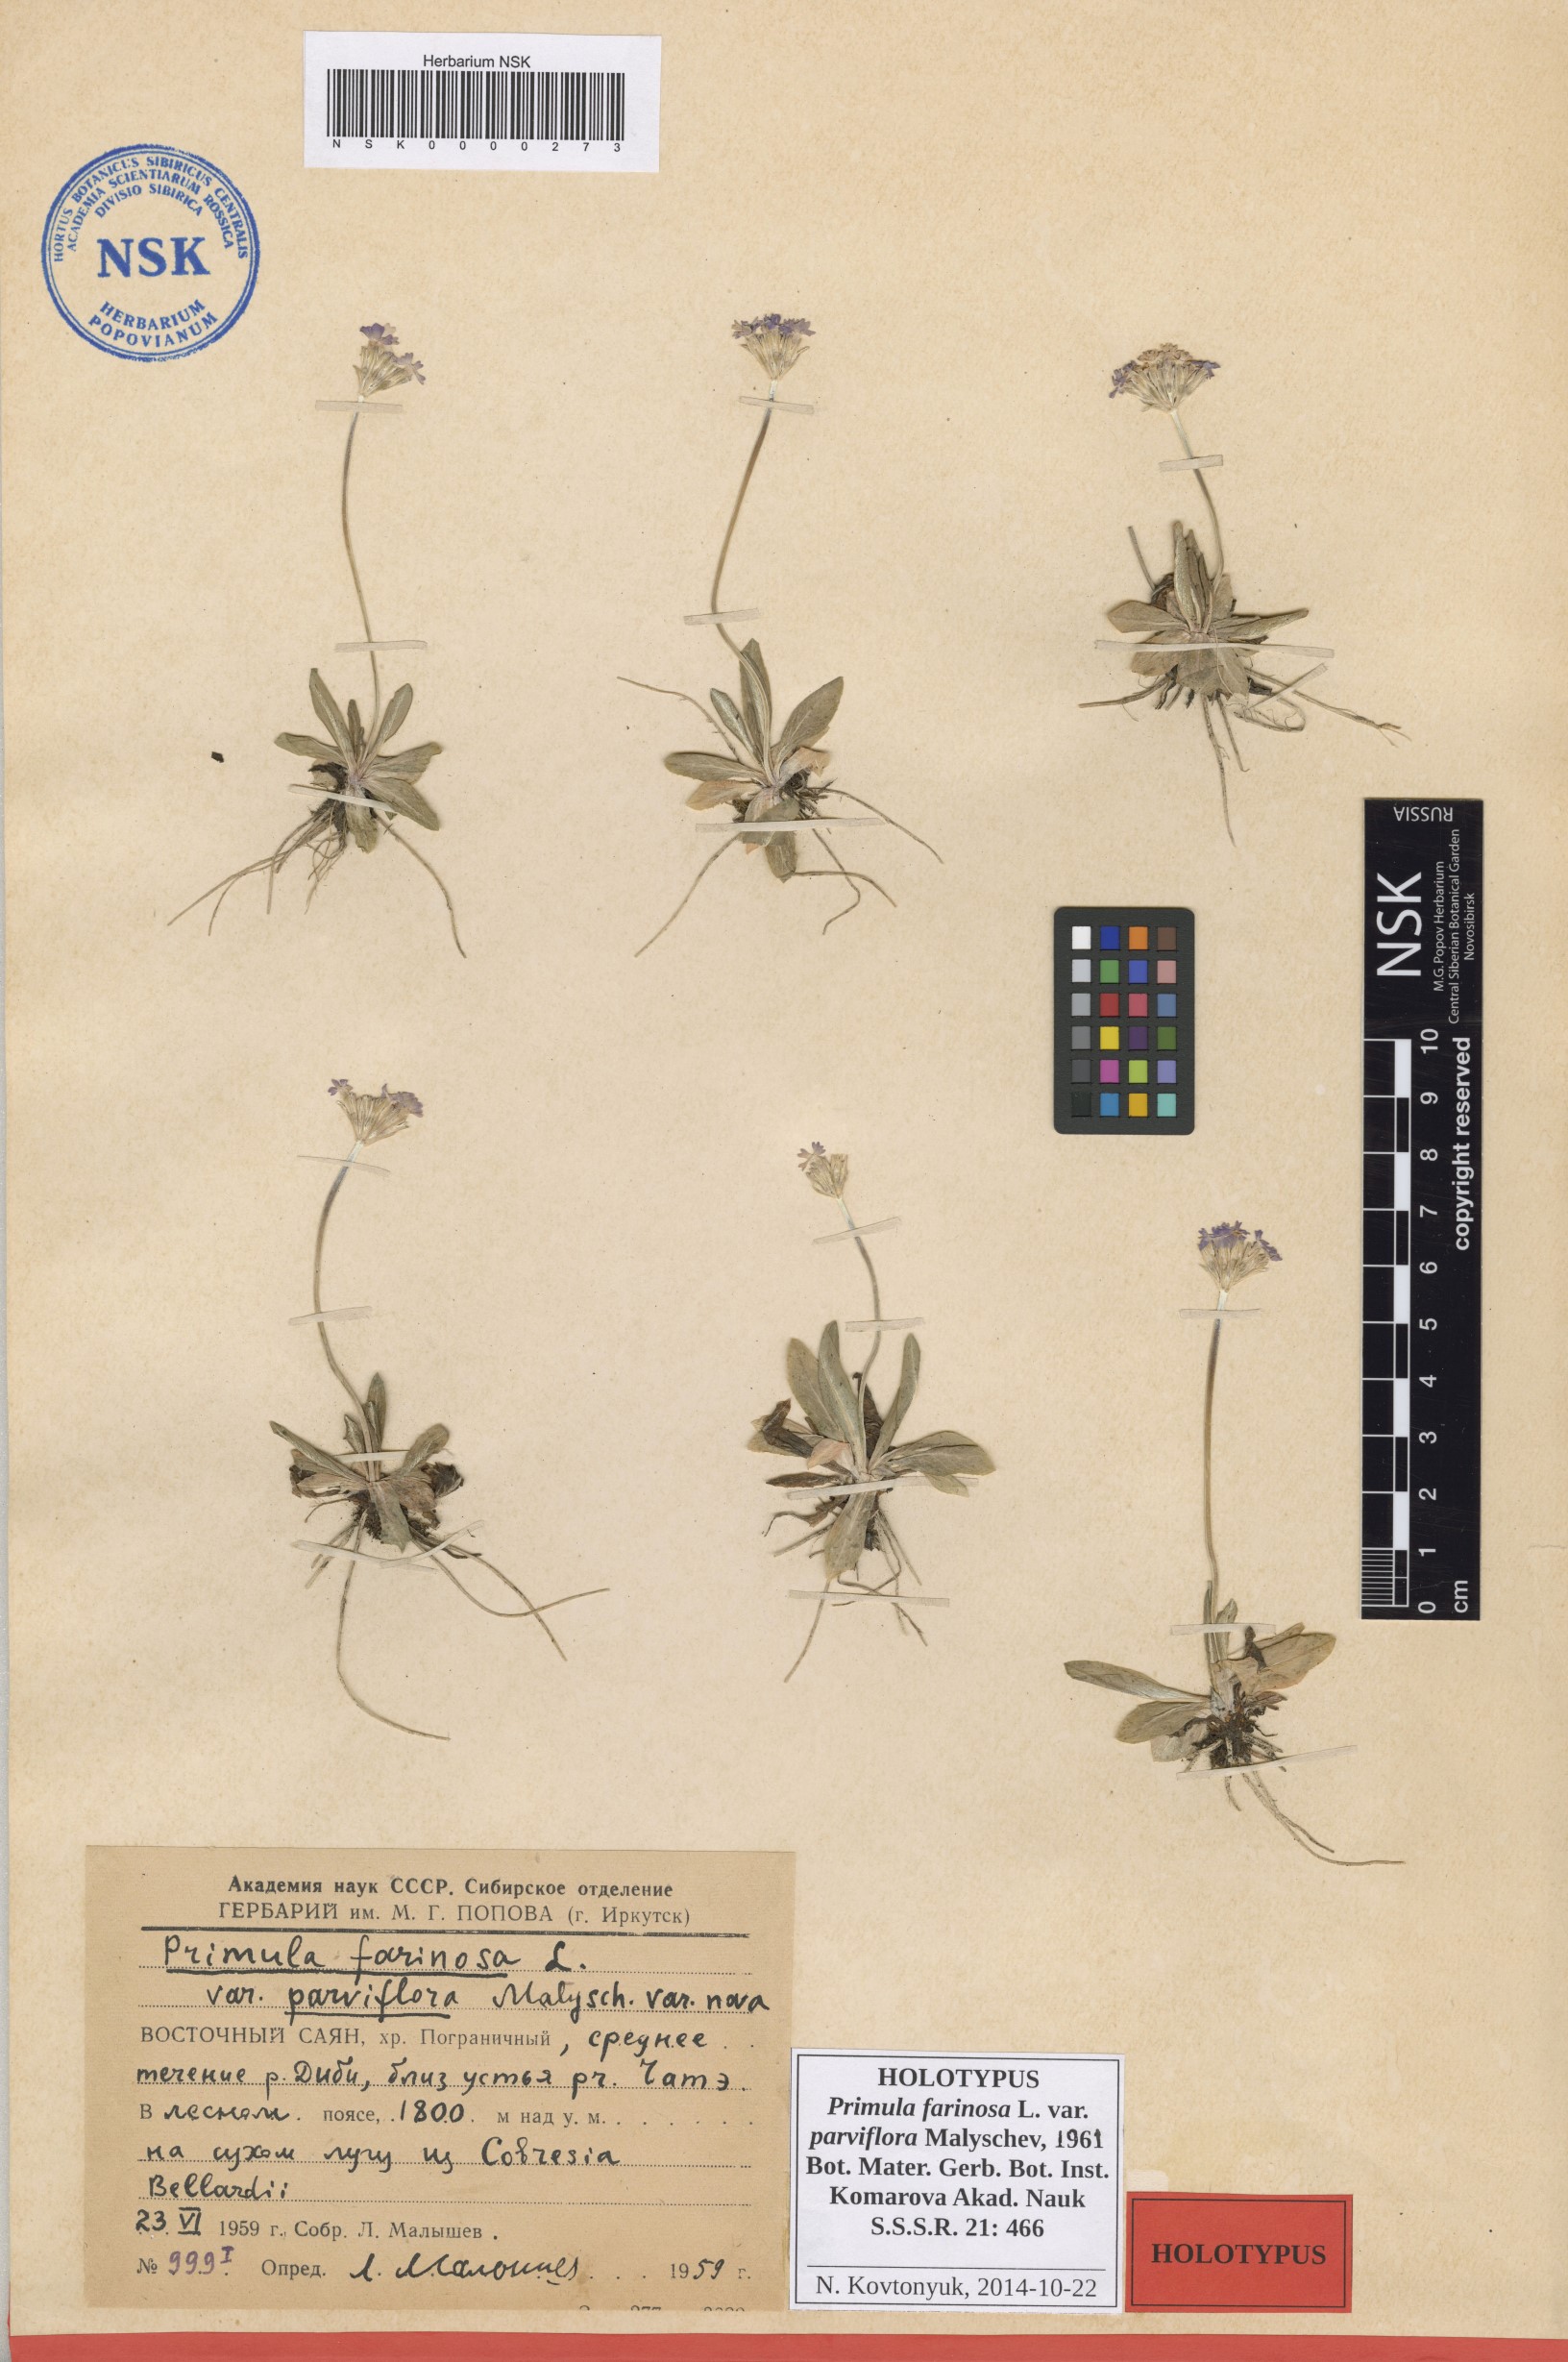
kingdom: Plantae
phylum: Tracheophyta
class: Magnoliopsida
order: Ericales
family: Primulaceae
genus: Primula
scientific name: Primula farinosa
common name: Bird's-eye primrose
